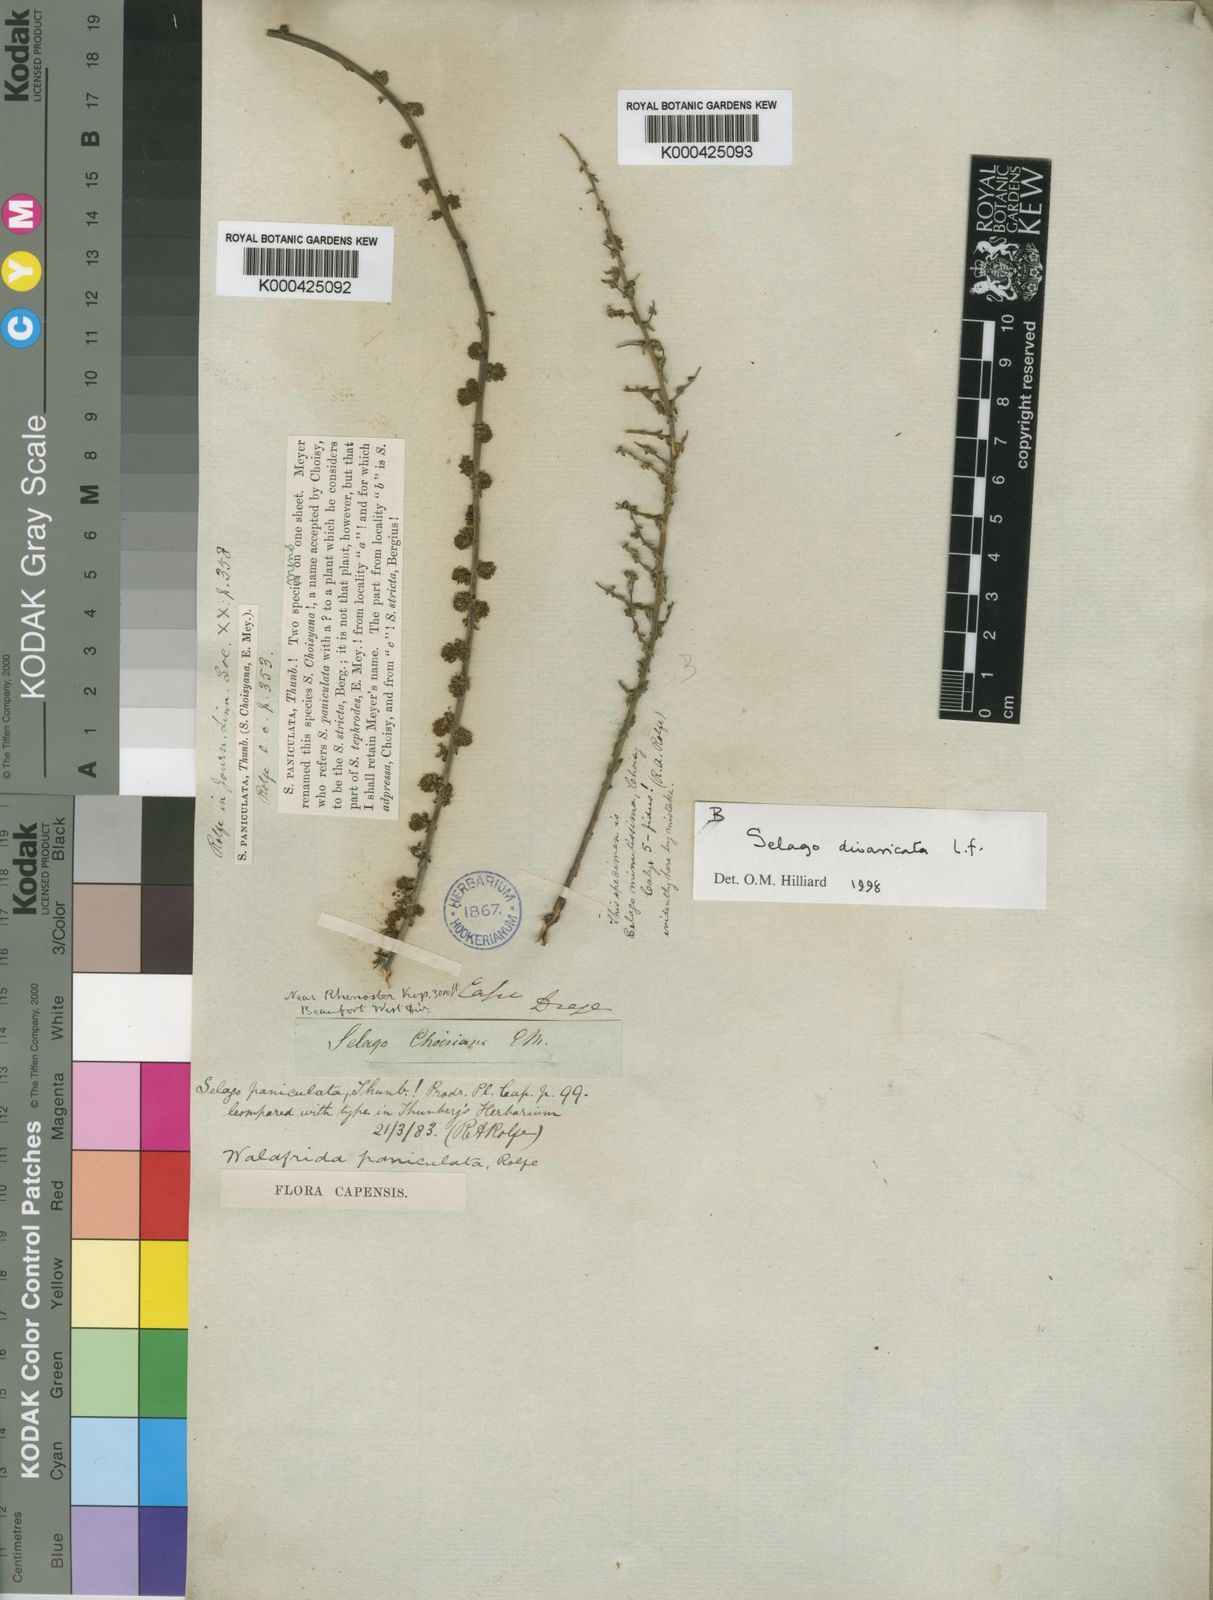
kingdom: Plantae
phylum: Tracheophyta
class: Magnoliopsida
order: Lamiales
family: Scrophulariaceae
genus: Selago
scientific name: Selago paniculata
